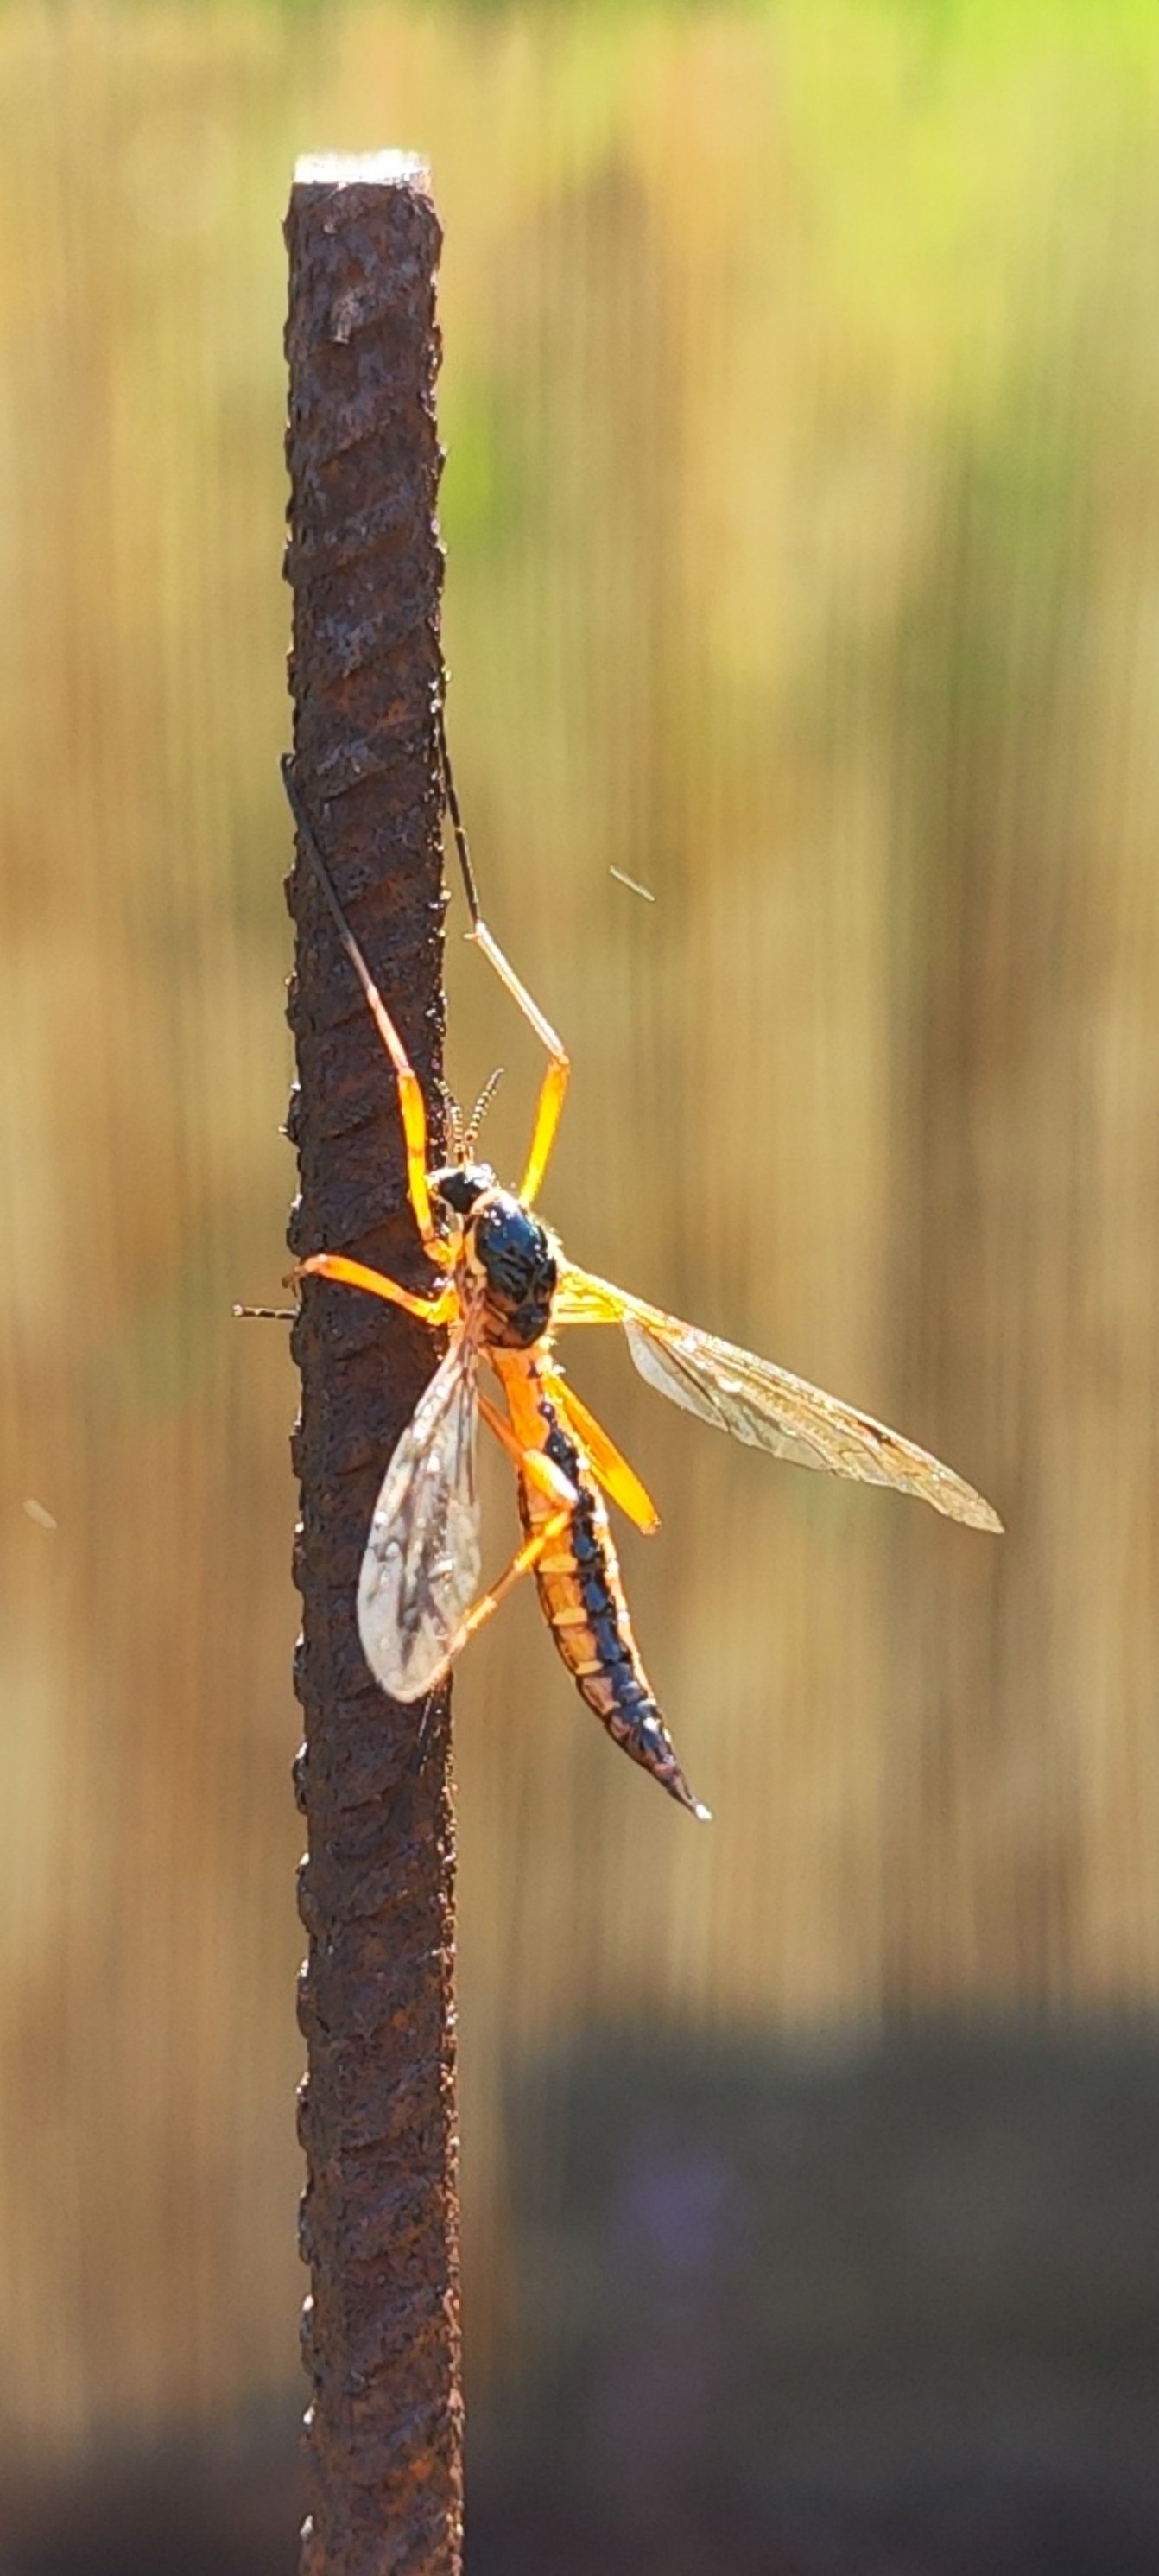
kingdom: Animalia
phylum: Arthropoda
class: Insecta
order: Diptera
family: Tipulidae
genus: Ctenophora
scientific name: Ctenophora pectinicornis
